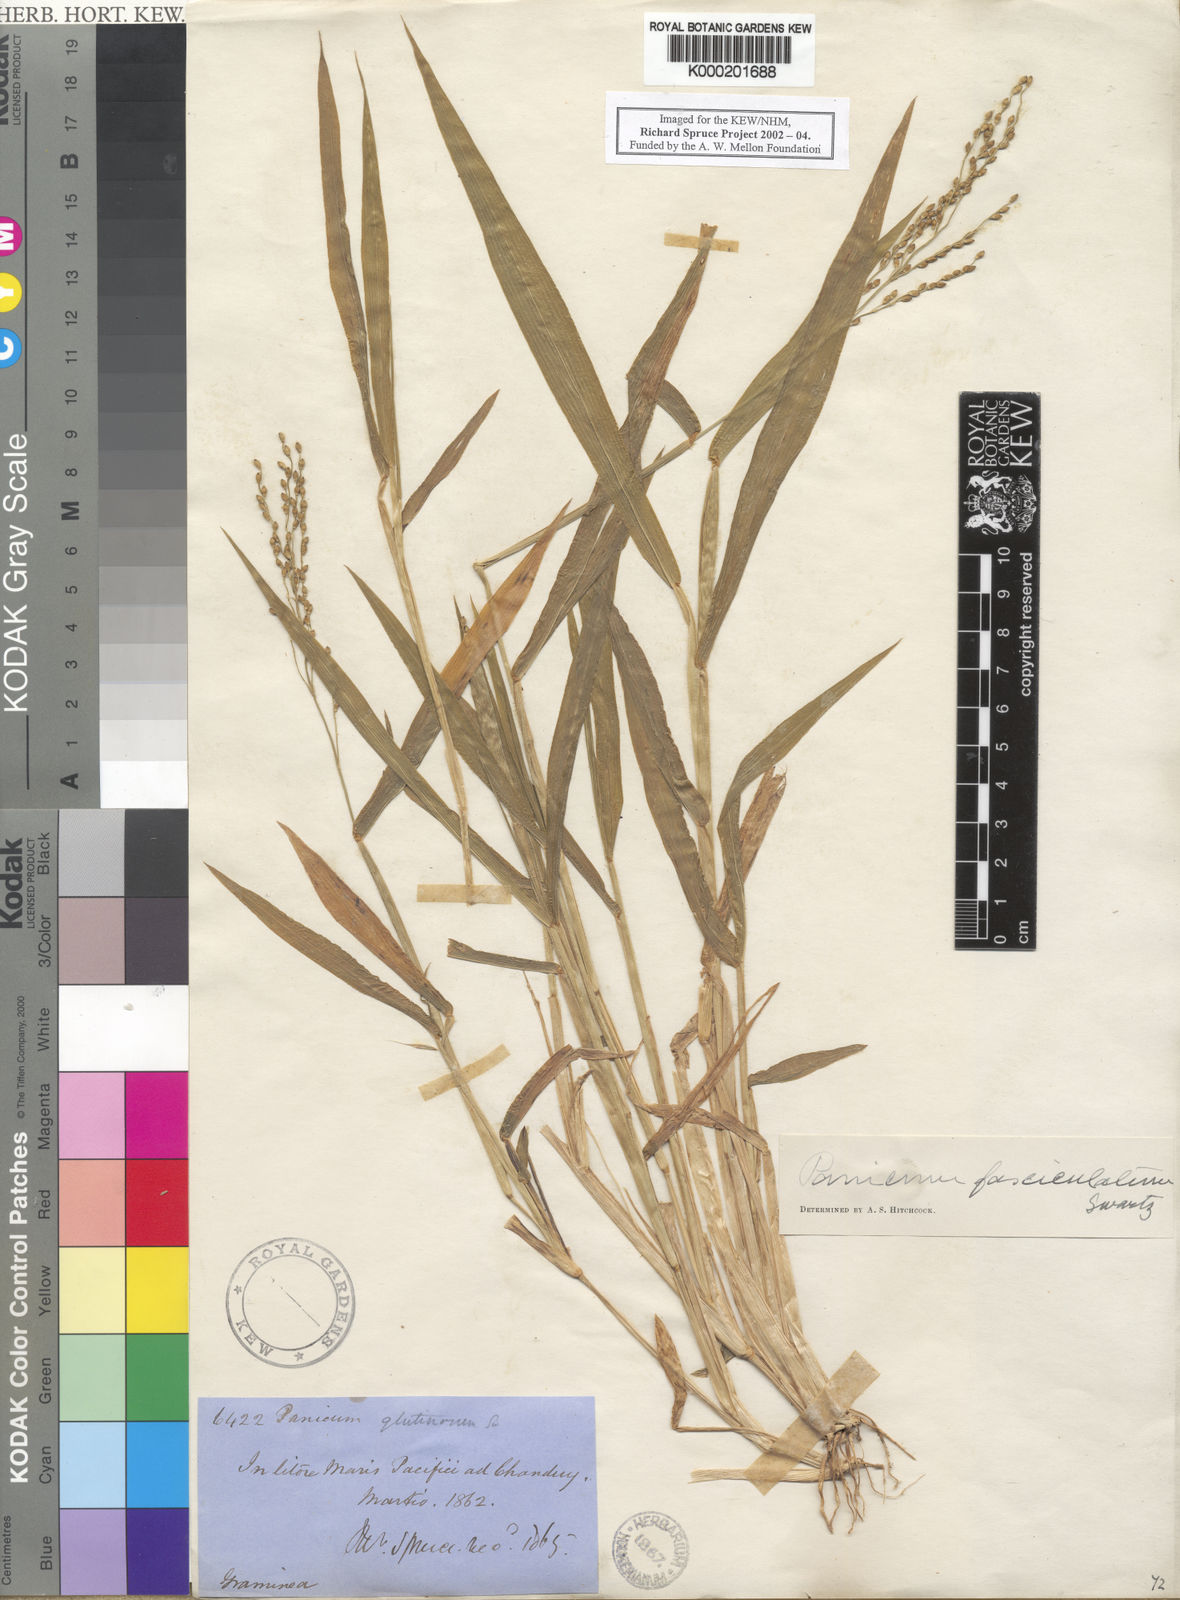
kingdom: Plantae
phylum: Tracheophyta
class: Liliopsida
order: Poales
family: Poaceae
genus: Urochloa
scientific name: Urochloa fusca
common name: Browntop signal grass
